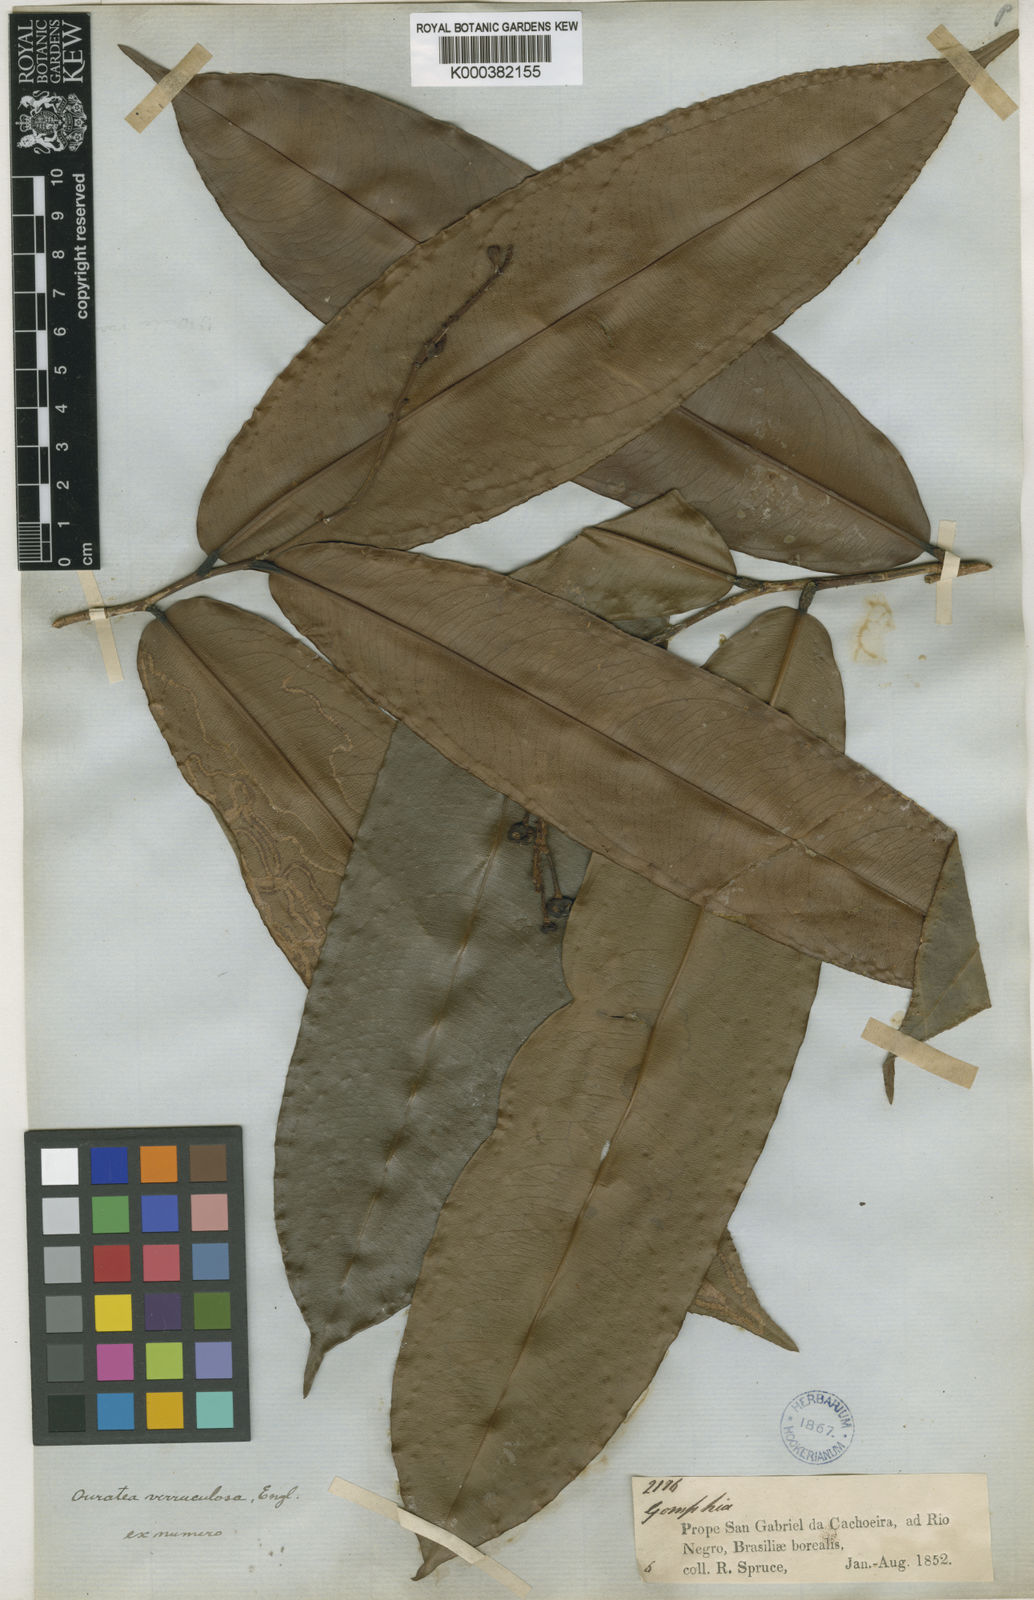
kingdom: Plantae
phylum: Tracheophyta
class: Magnoliopsida
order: Malpighiales
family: Ochnaceae
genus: Ouratea
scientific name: Ouratea verruculosa
